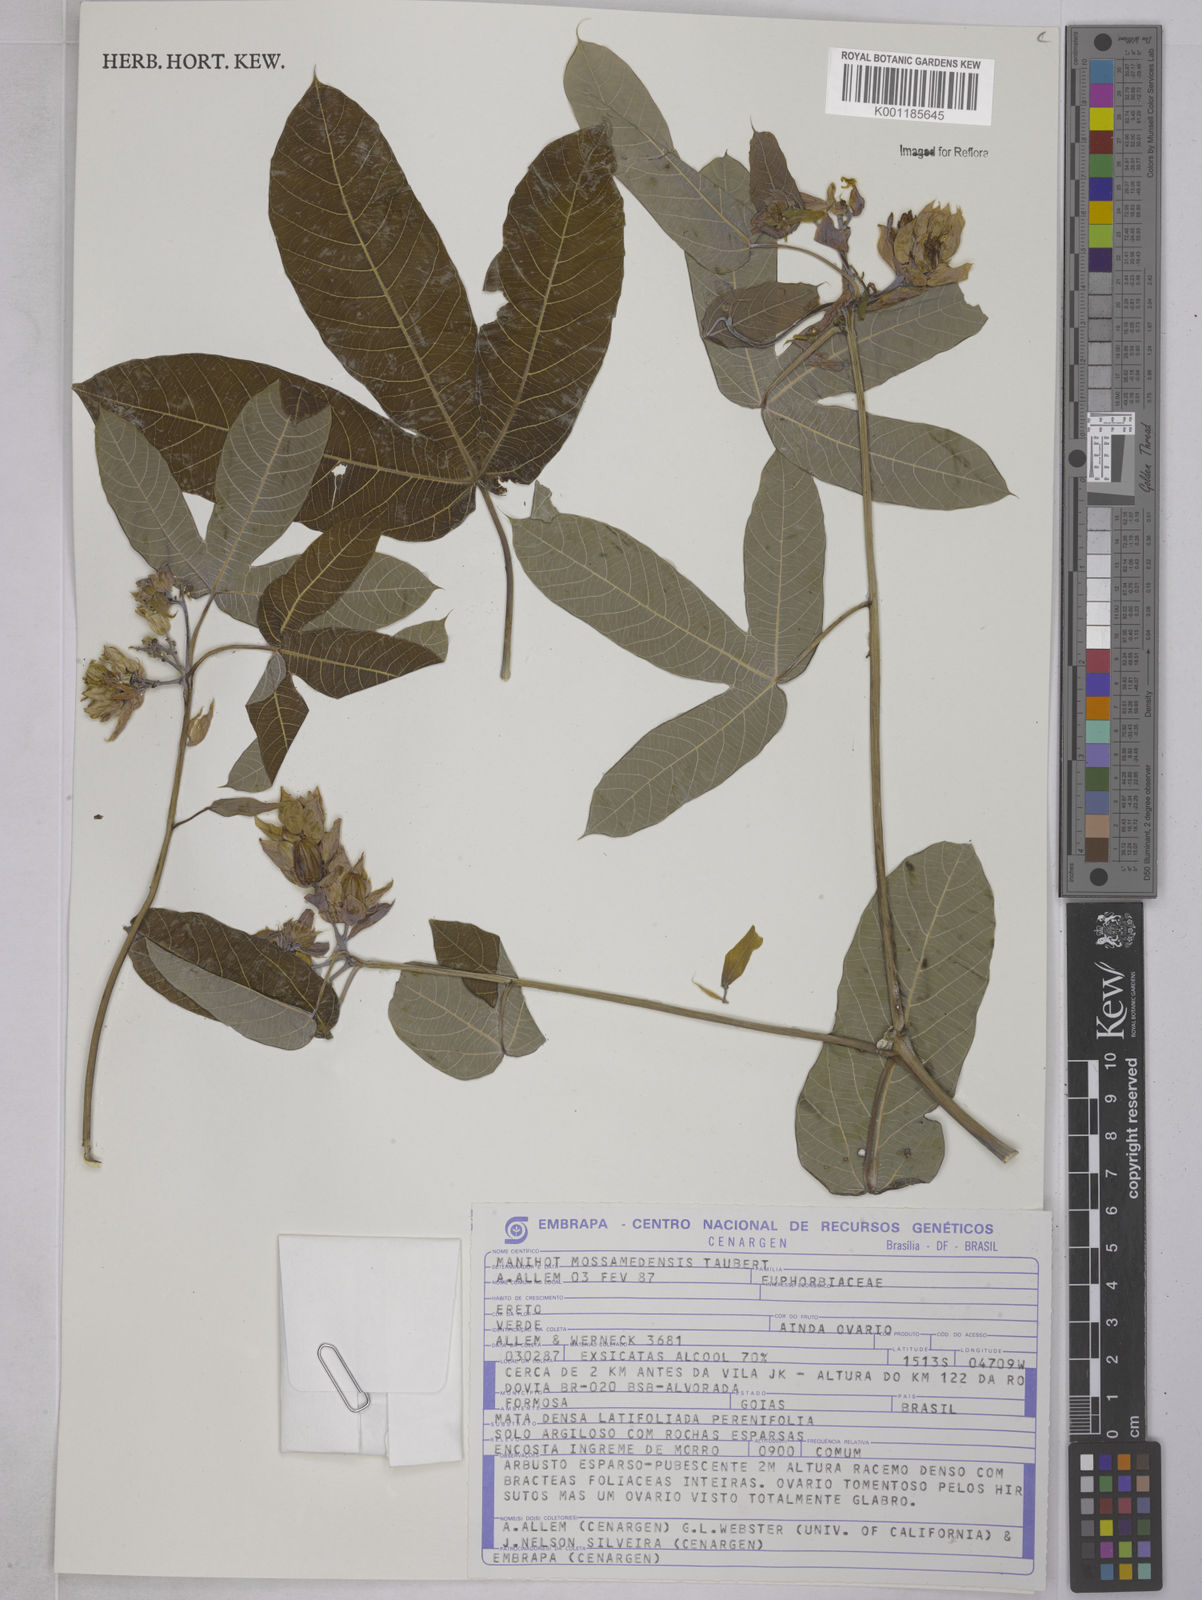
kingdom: Plantae
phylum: Tracheophyta
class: Magnoliopsida
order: Malpighiales
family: Euphorbiaceae
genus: Manihot
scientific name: Manihot cecropiifolia
